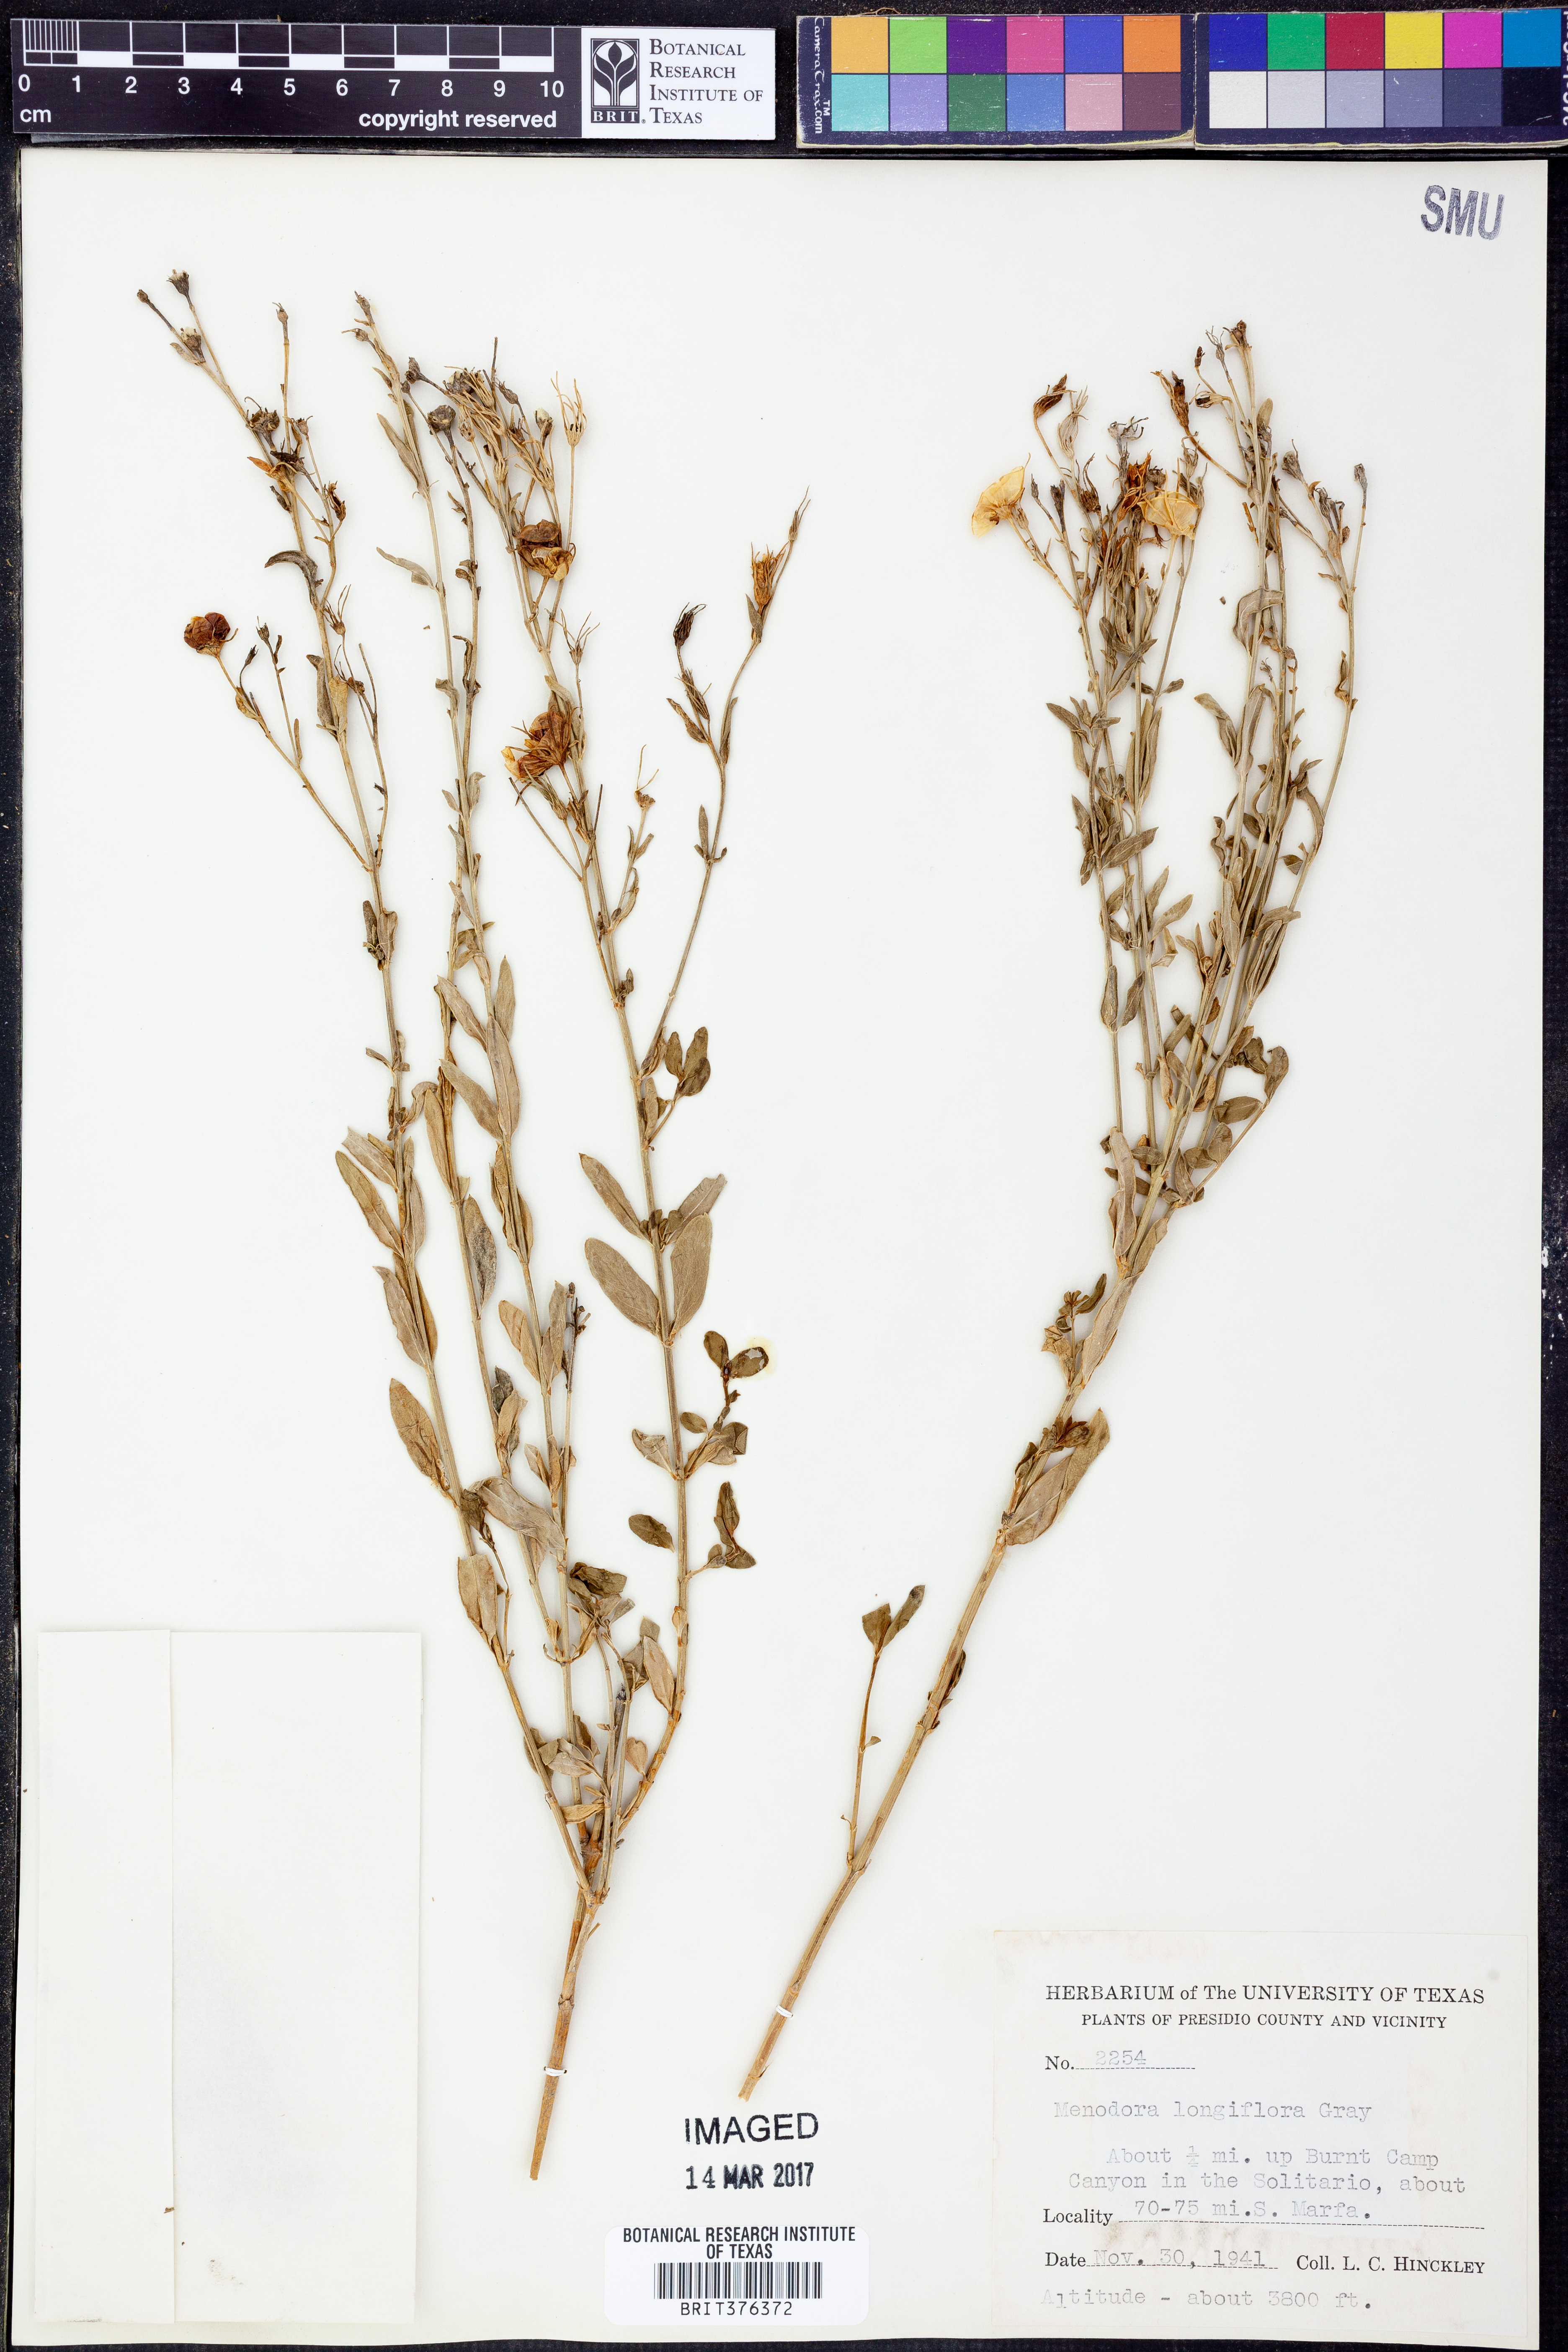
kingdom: Plantae
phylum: Tracheophyta
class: Magnoliopsida
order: Lamiales
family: Oleaceae
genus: Menodora
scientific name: Menodora longiflora
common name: Showy menodora
